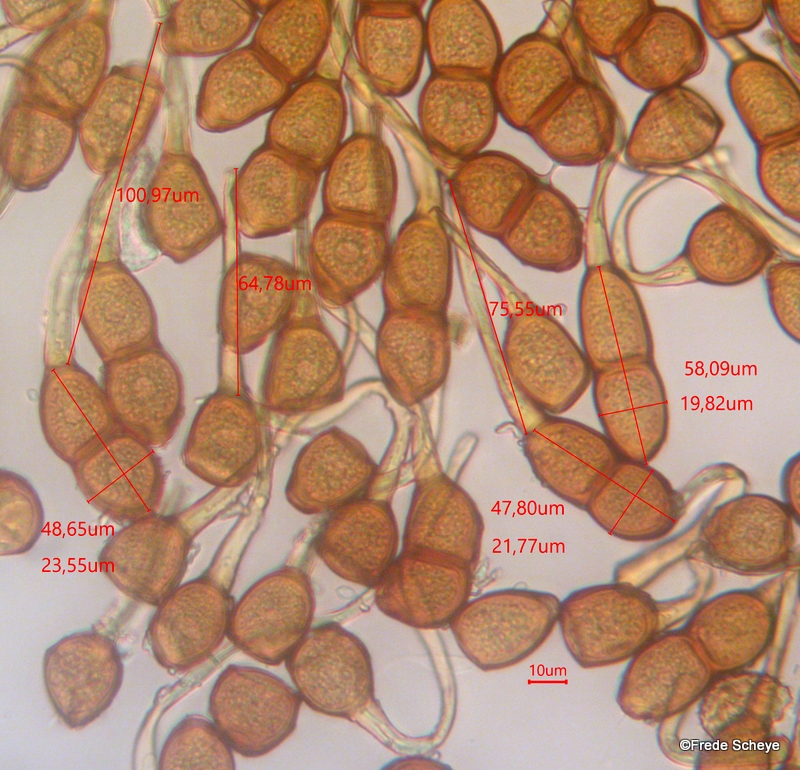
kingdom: Fungi
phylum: Basidiomycota
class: Pucciniomycetes
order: Pucciniales
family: Pucciniaceae
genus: Puccinia
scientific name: Puccinia phragmitis
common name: tagrør-tvecellerust
